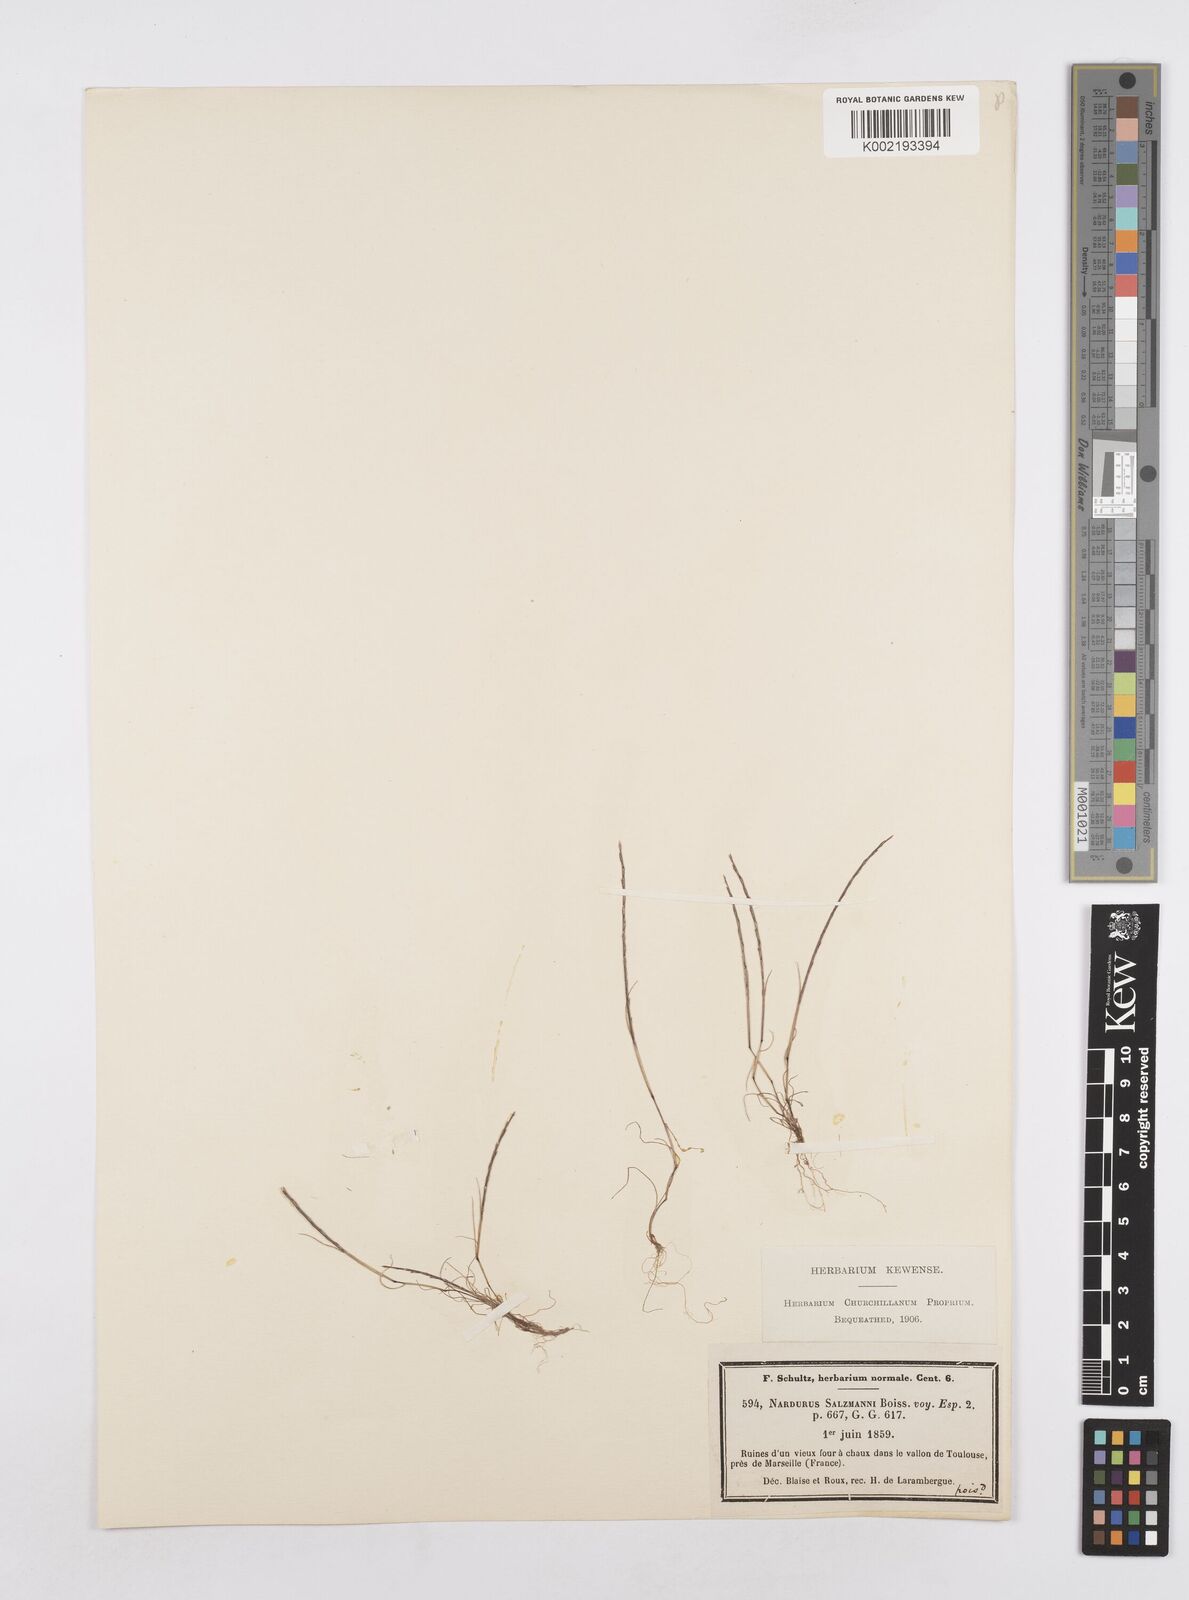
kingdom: Plantae
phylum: Tracheophyta
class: Liliopsida
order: Poales
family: Poaceae
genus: Festuca
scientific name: Festuca salzmannii
